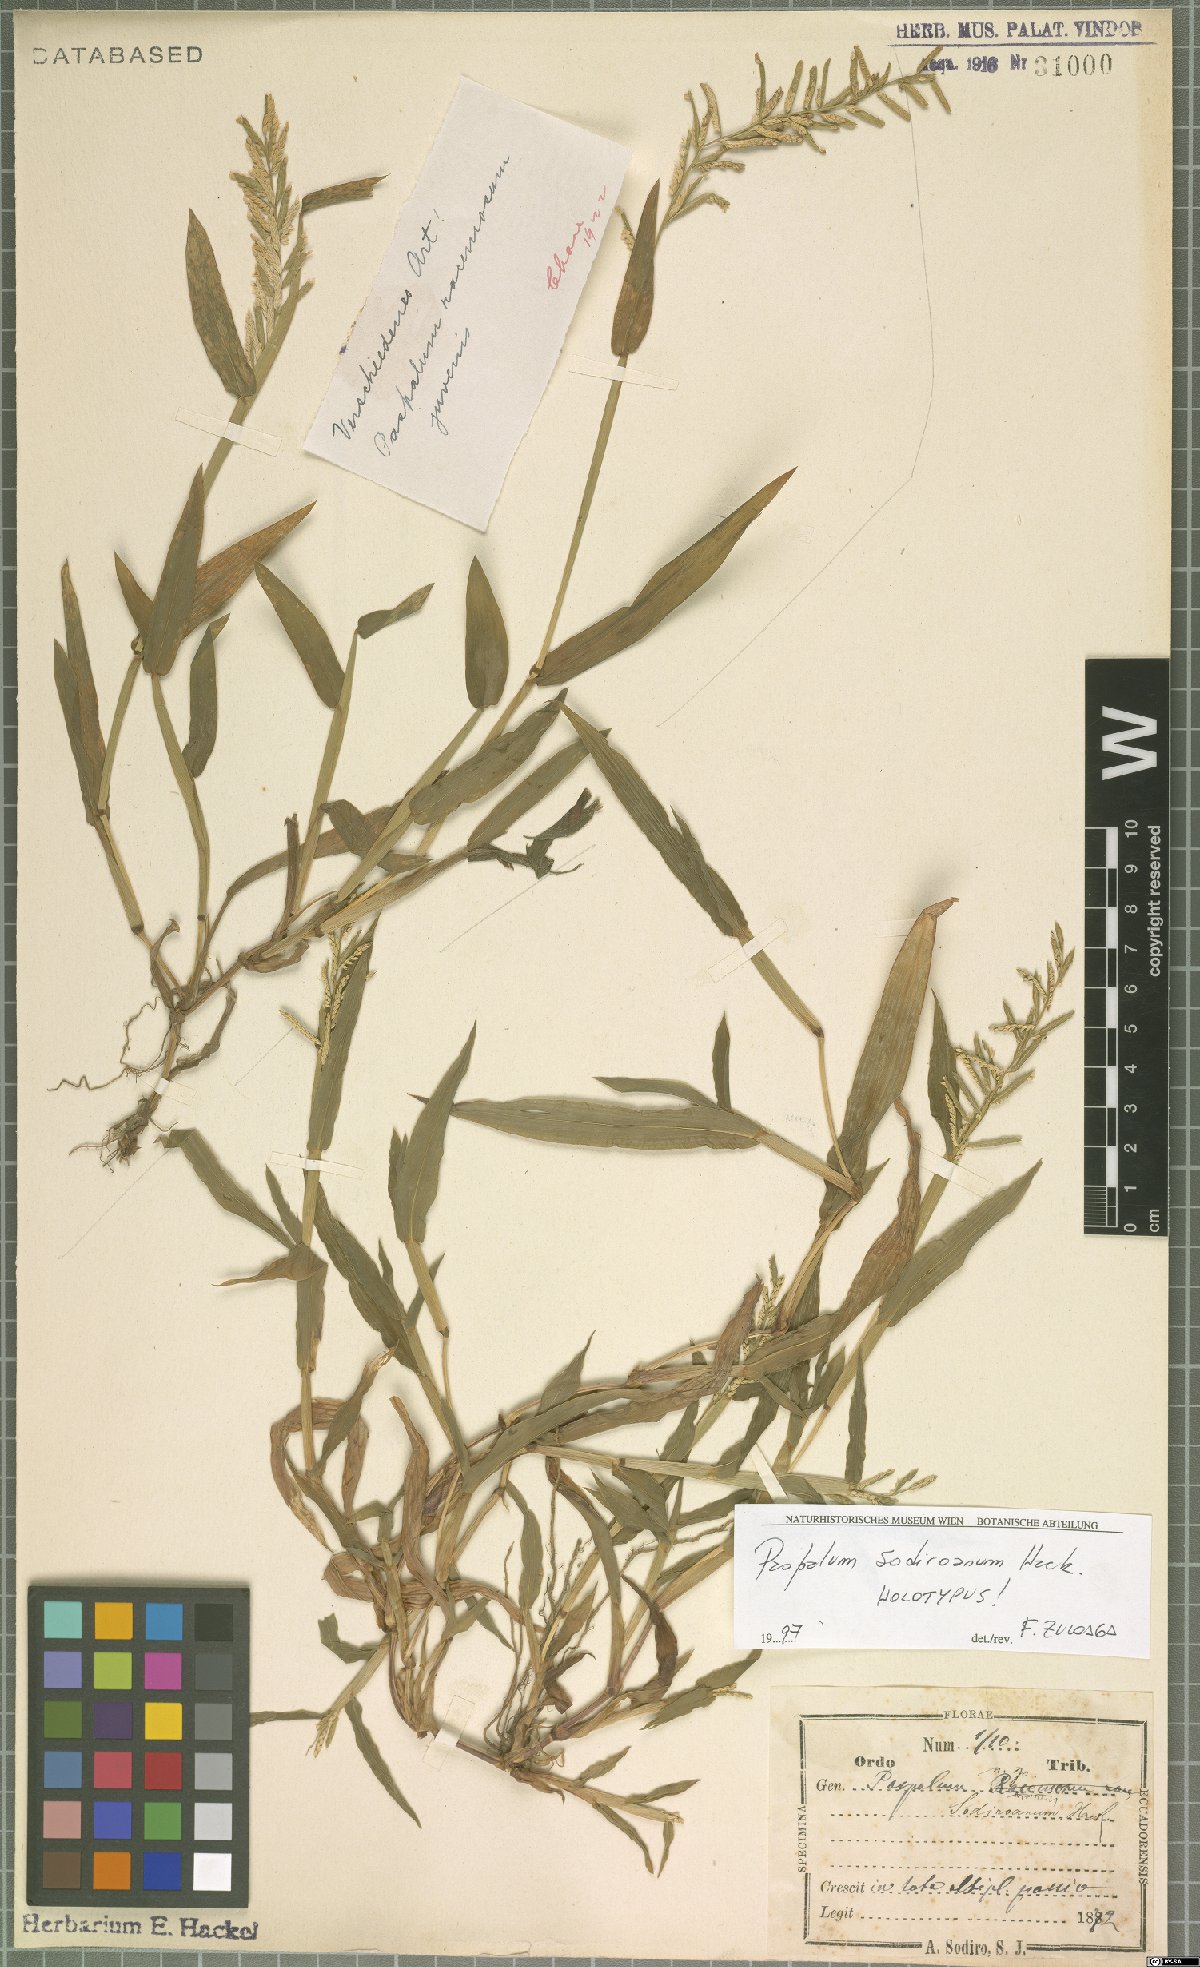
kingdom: Plantae
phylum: Tracheophyta
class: Liliopsida
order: Poales
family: Poaceae
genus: Paspalum
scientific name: Paspalum sodiroanum
